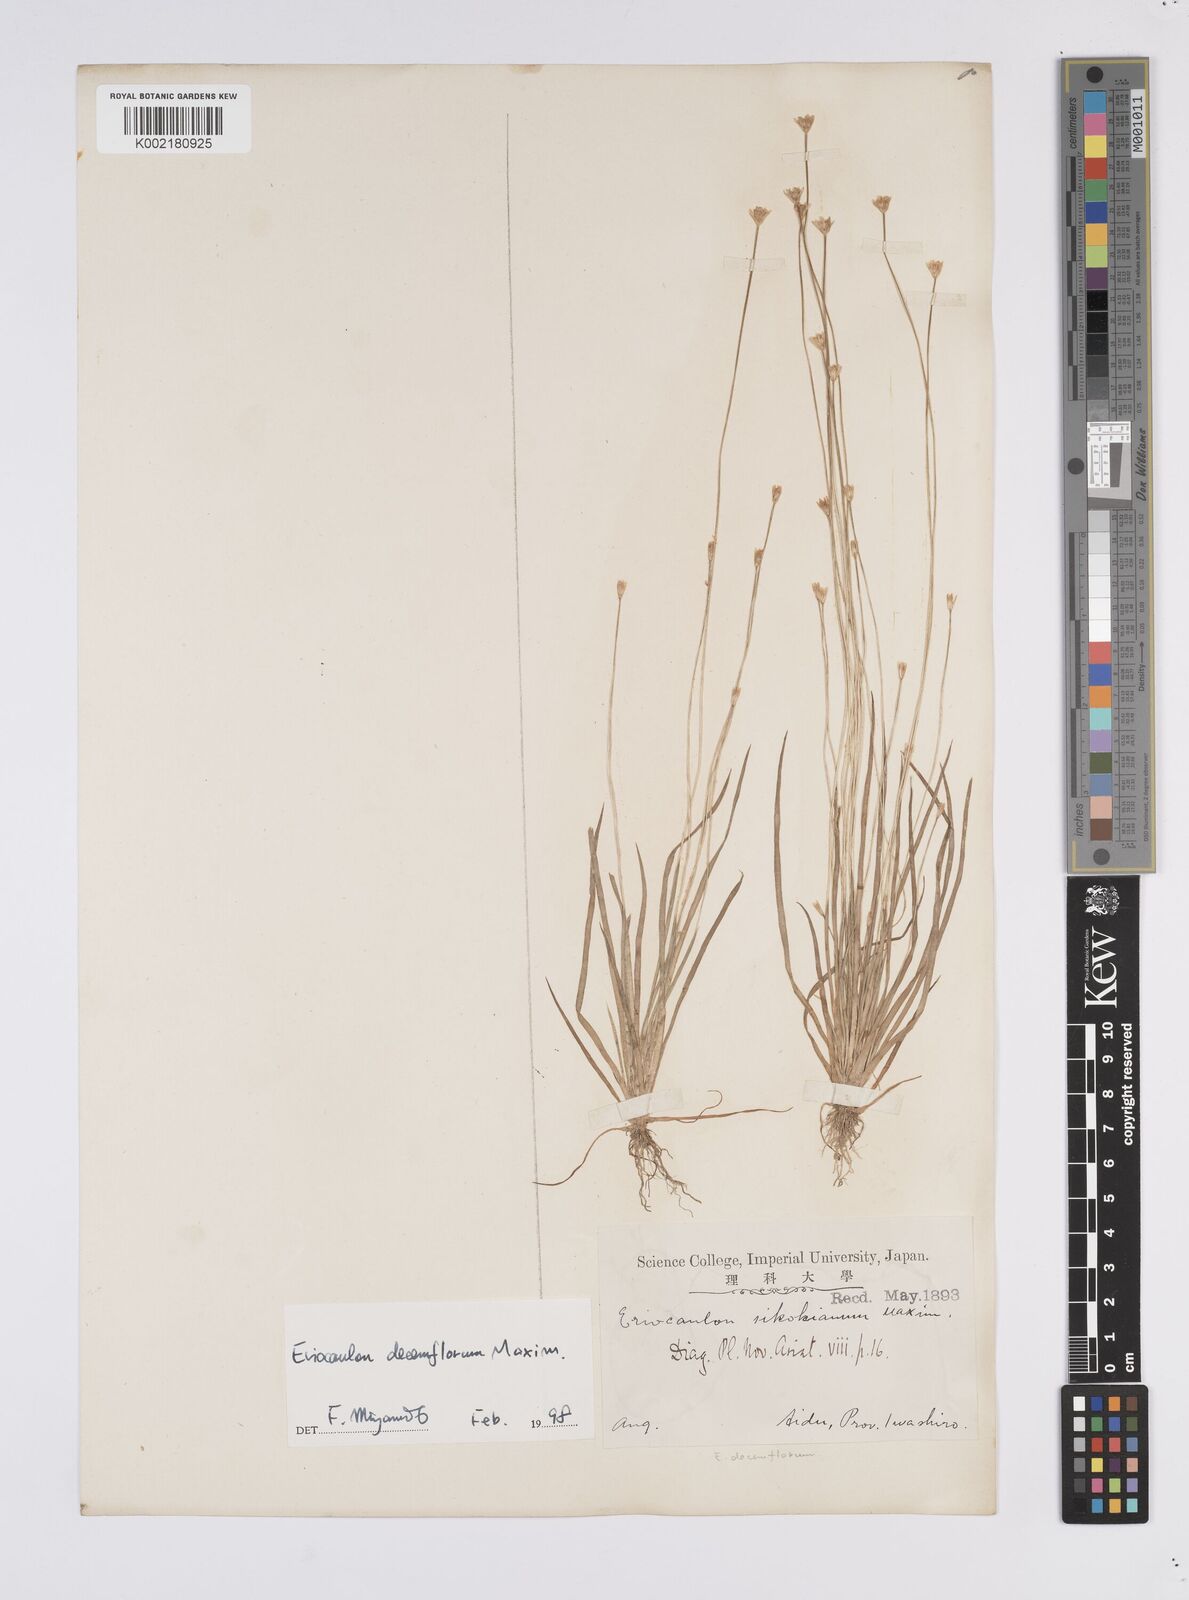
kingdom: Plantae
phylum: Tracheophyta
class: Liliopsida
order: Poales
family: Eriocaulaceae
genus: Eriocaulon
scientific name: Eriocaulon decemflorum
